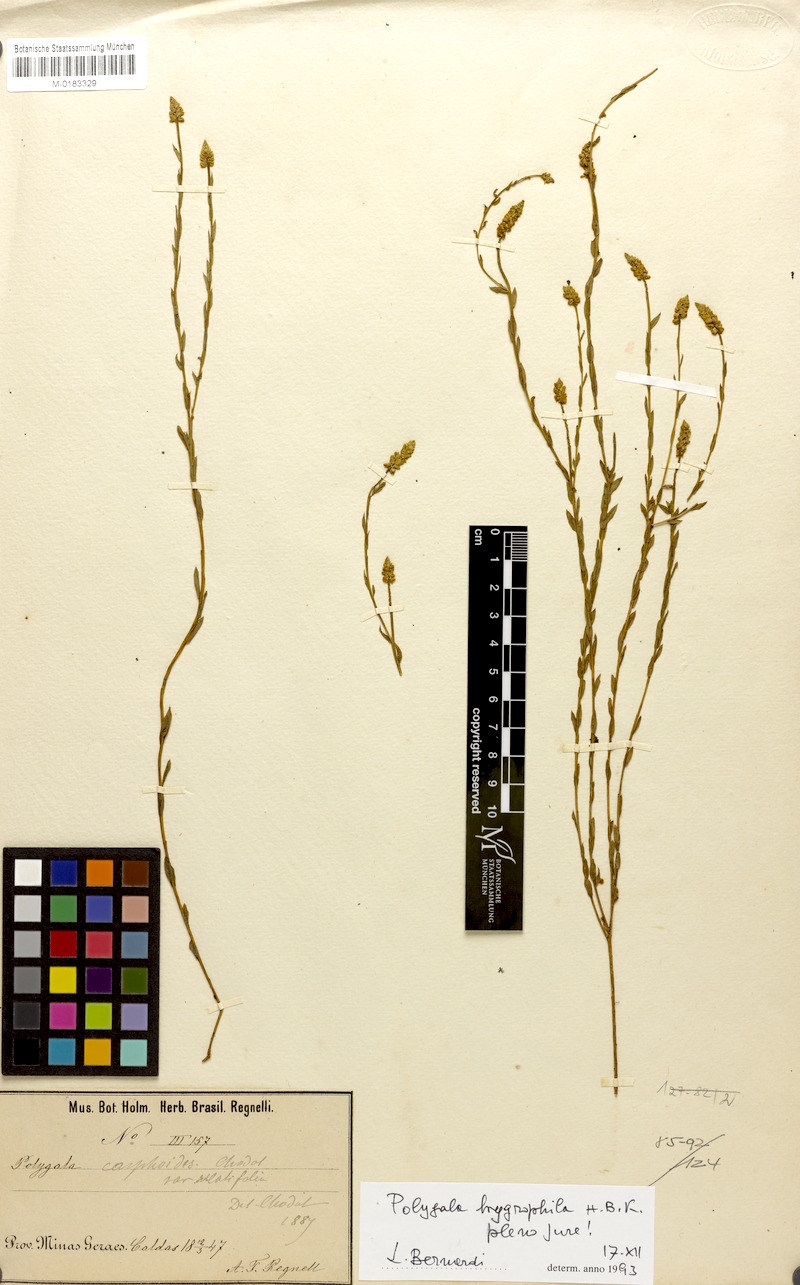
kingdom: Plantae
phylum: Tracheophyta
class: Magnoliopsida
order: Fabales
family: Polygalaceae
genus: Polygala
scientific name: Polygala carphoides
